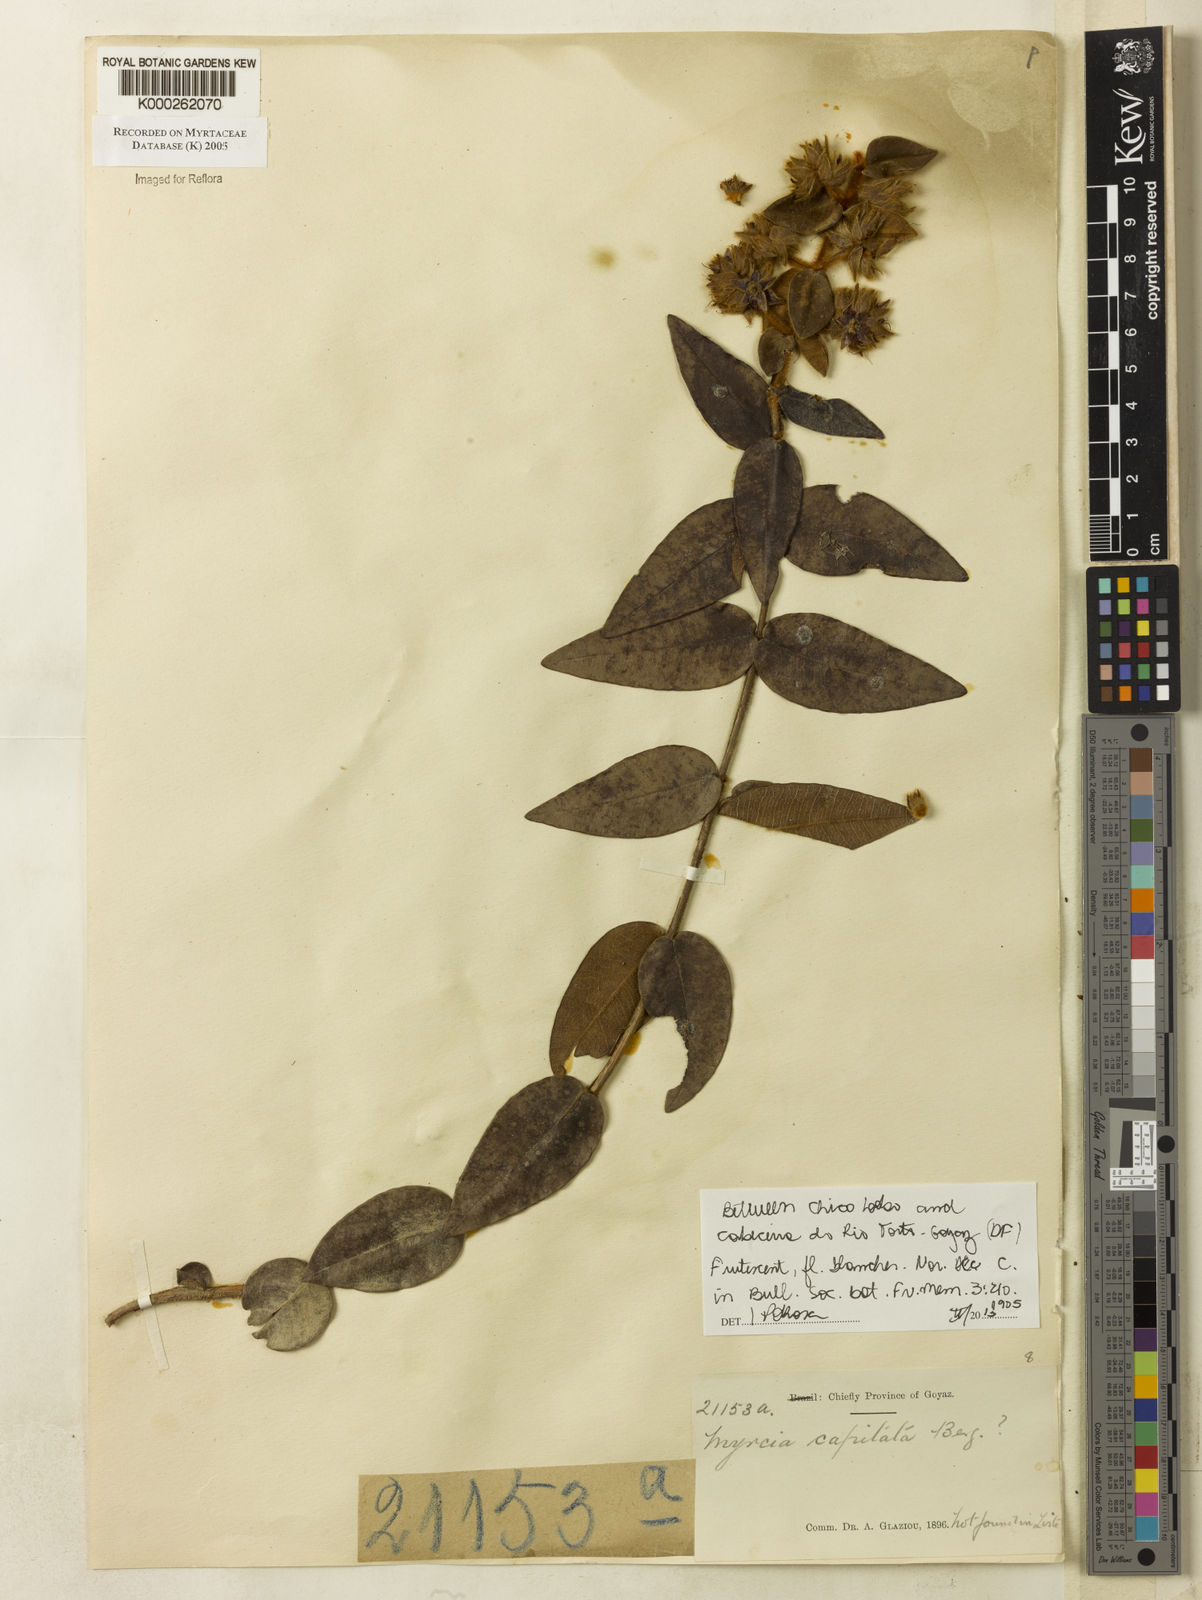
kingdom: Plantae
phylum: Tracheophyta
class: Magnoliopsida
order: Myrtales
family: Myrtaceae
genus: Myrcia
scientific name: Myrcia capitata
